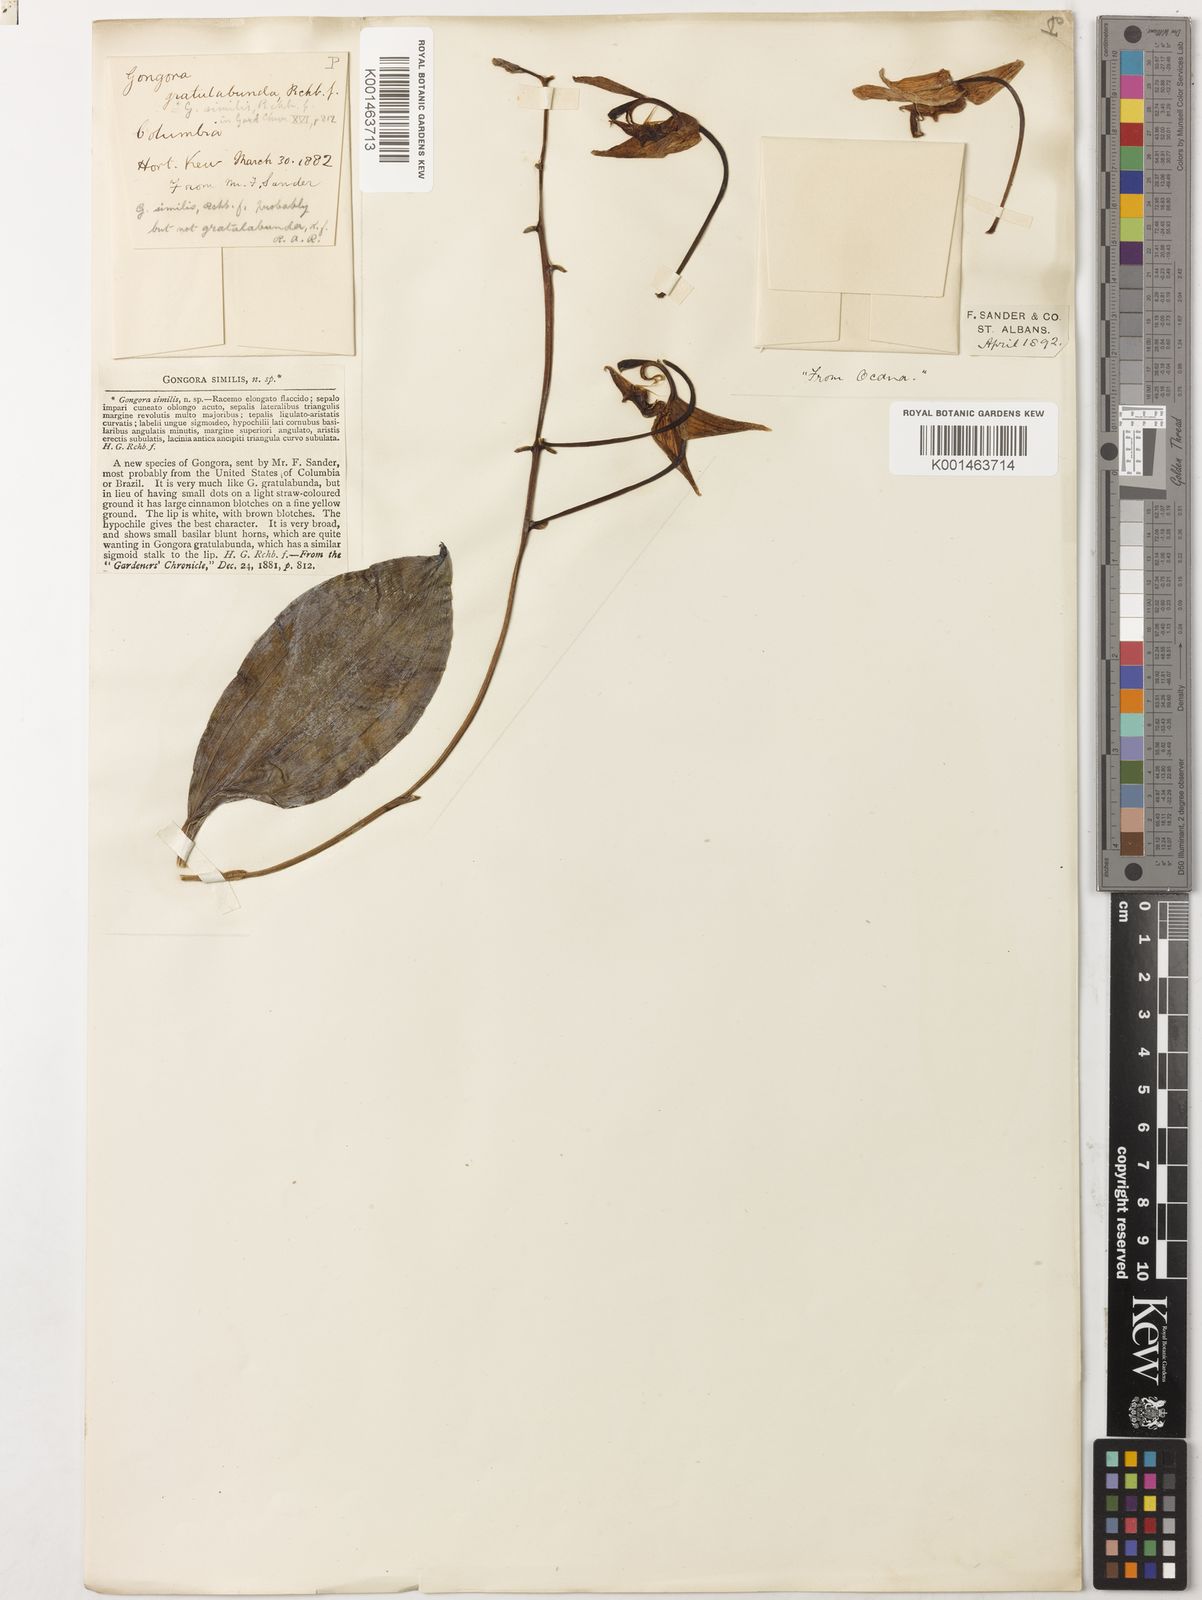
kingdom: Plantae
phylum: Tracheophyta
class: Liliopsida
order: Asparagales
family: Orchidaceae
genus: Gongora
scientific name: Gongora gratulabunda
